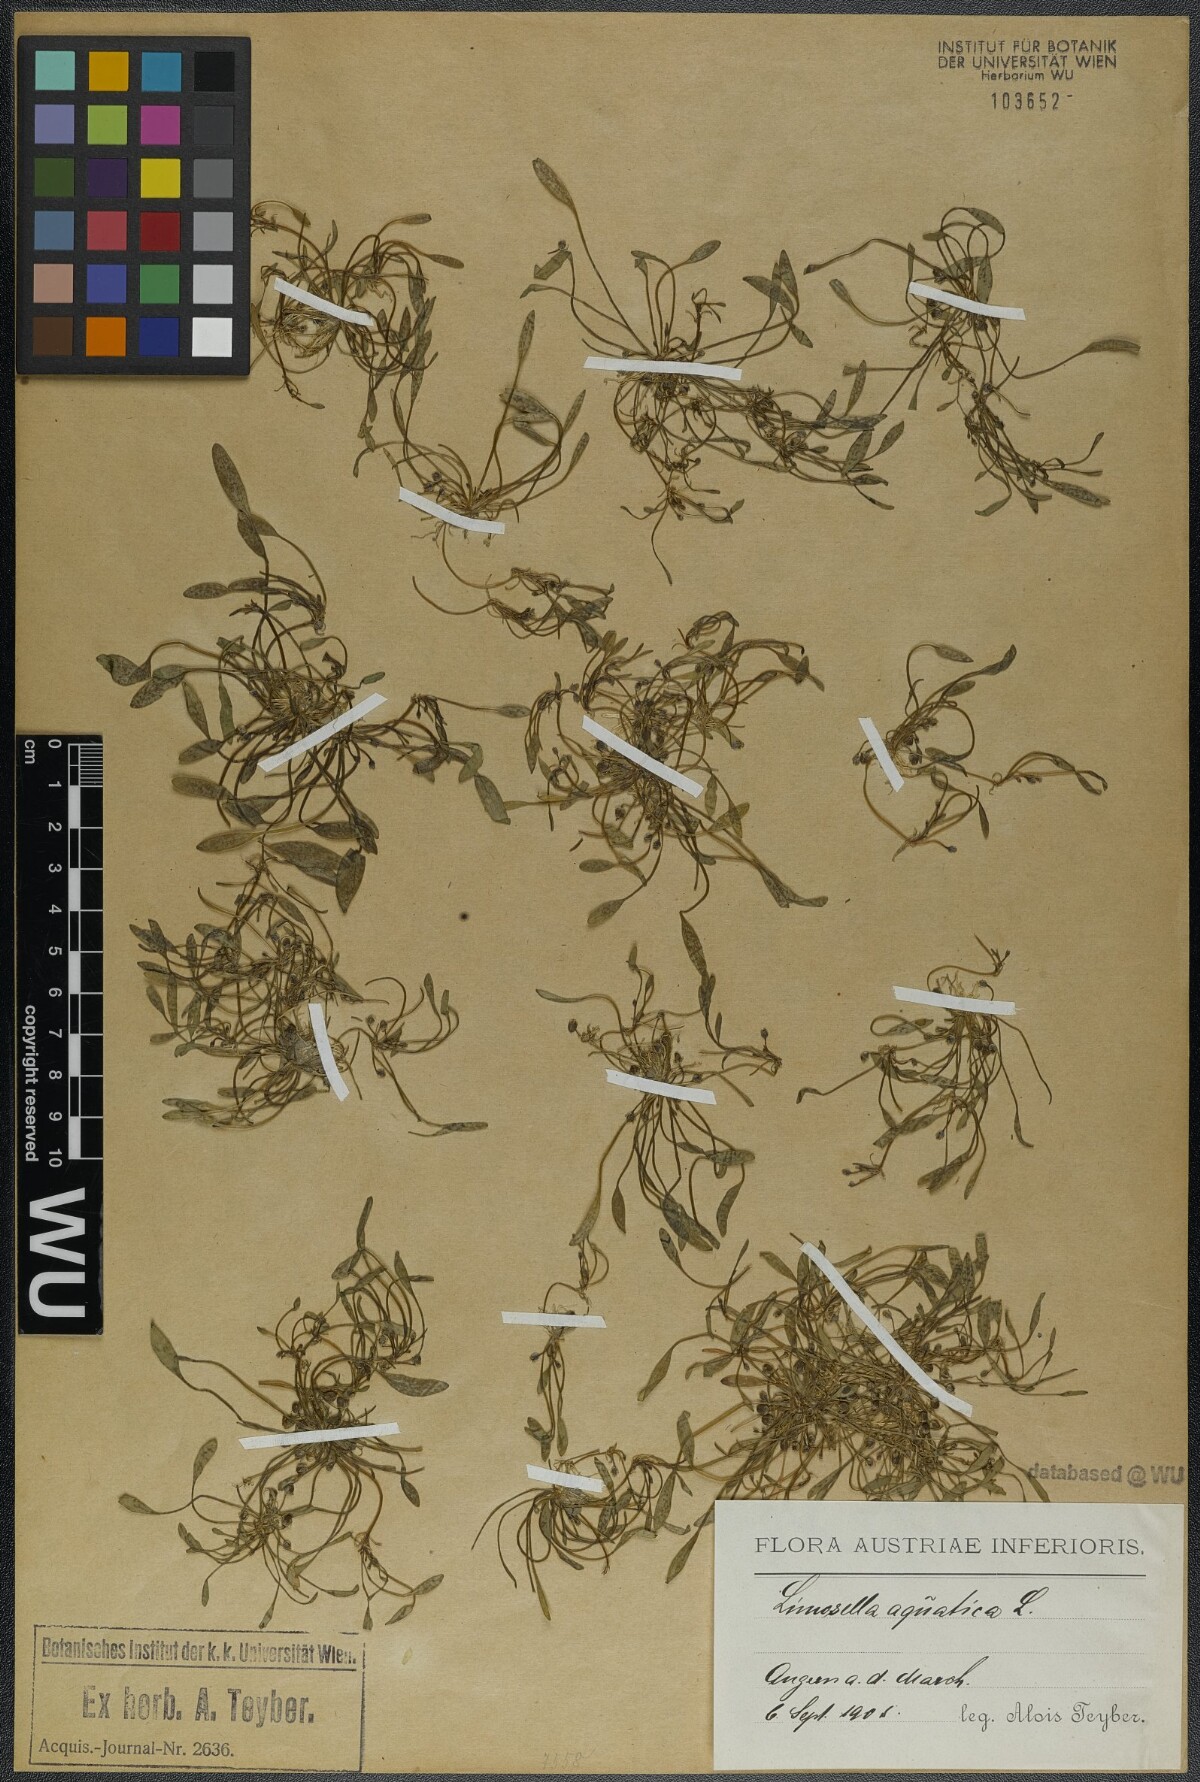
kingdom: Plantae
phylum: Tracheophyta
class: Magnoliopsida
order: Lamiales
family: Scrophulariaceae
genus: Limosella
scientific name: Limosella aquatica
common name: Mudwort
